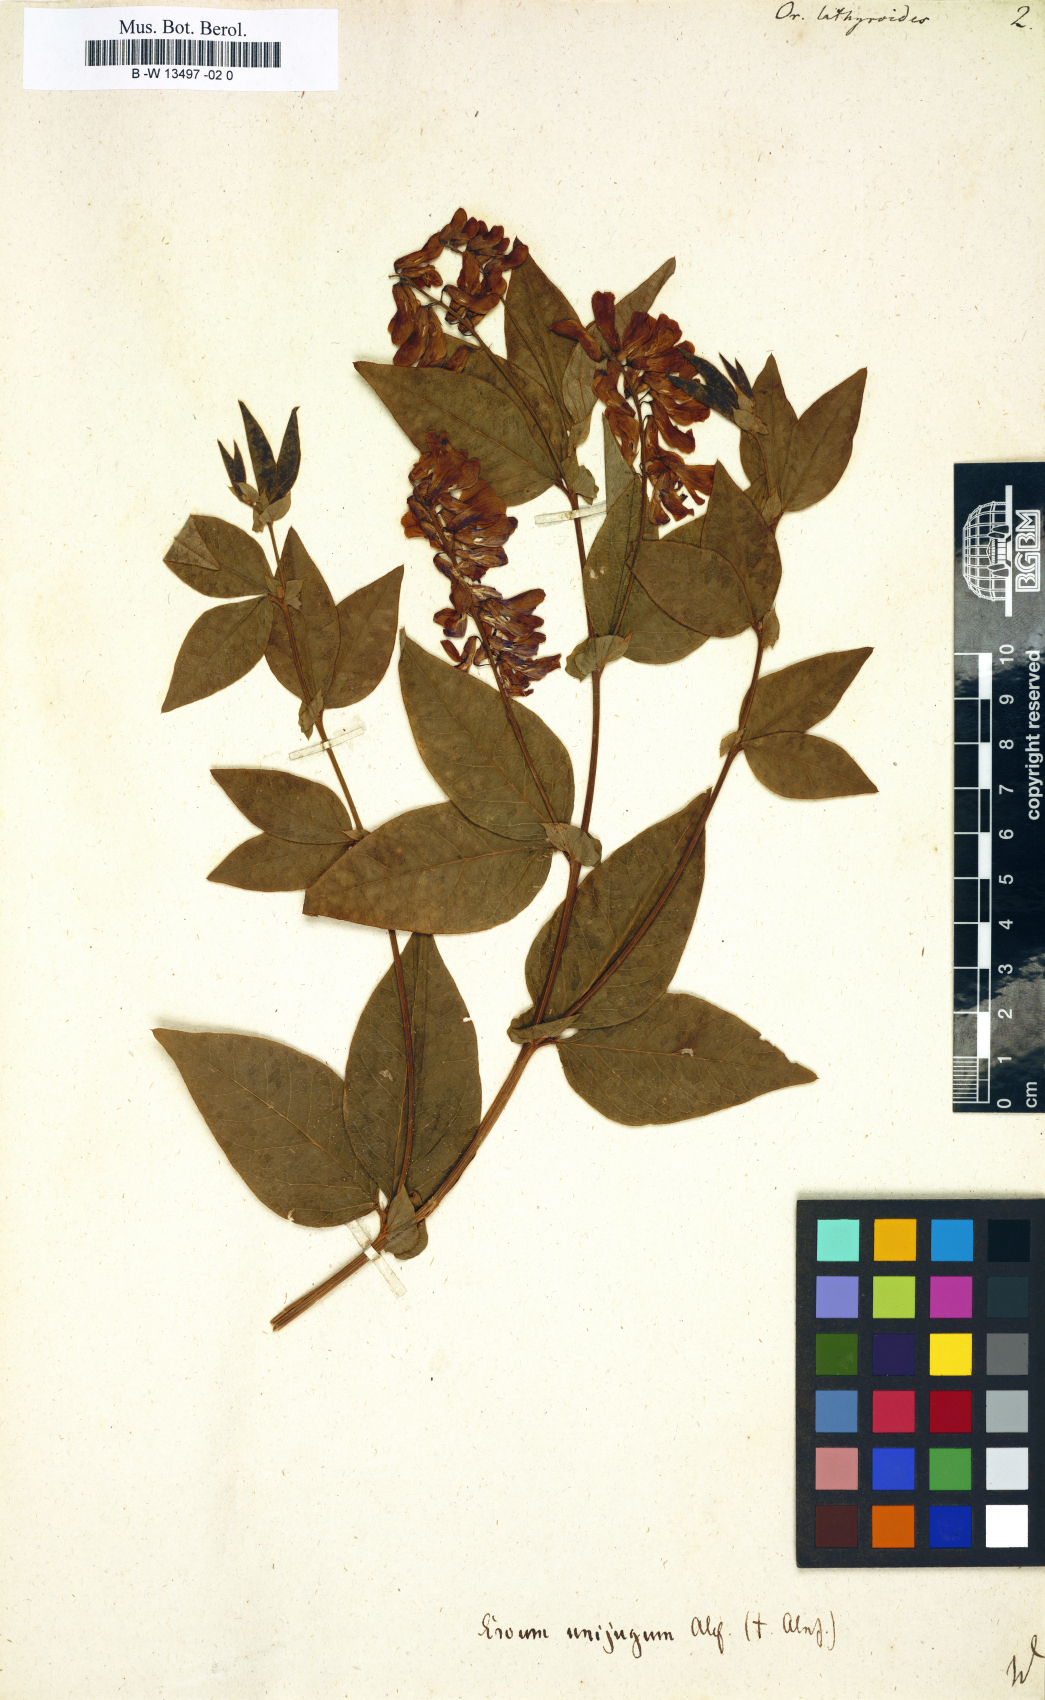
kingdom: Plantae
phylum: Tracheophyta
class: Magnoliopsida
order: Fabales
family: Fabaceae
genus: Vicia
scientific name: Vicia unijuga
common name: Two-leaf vetch
